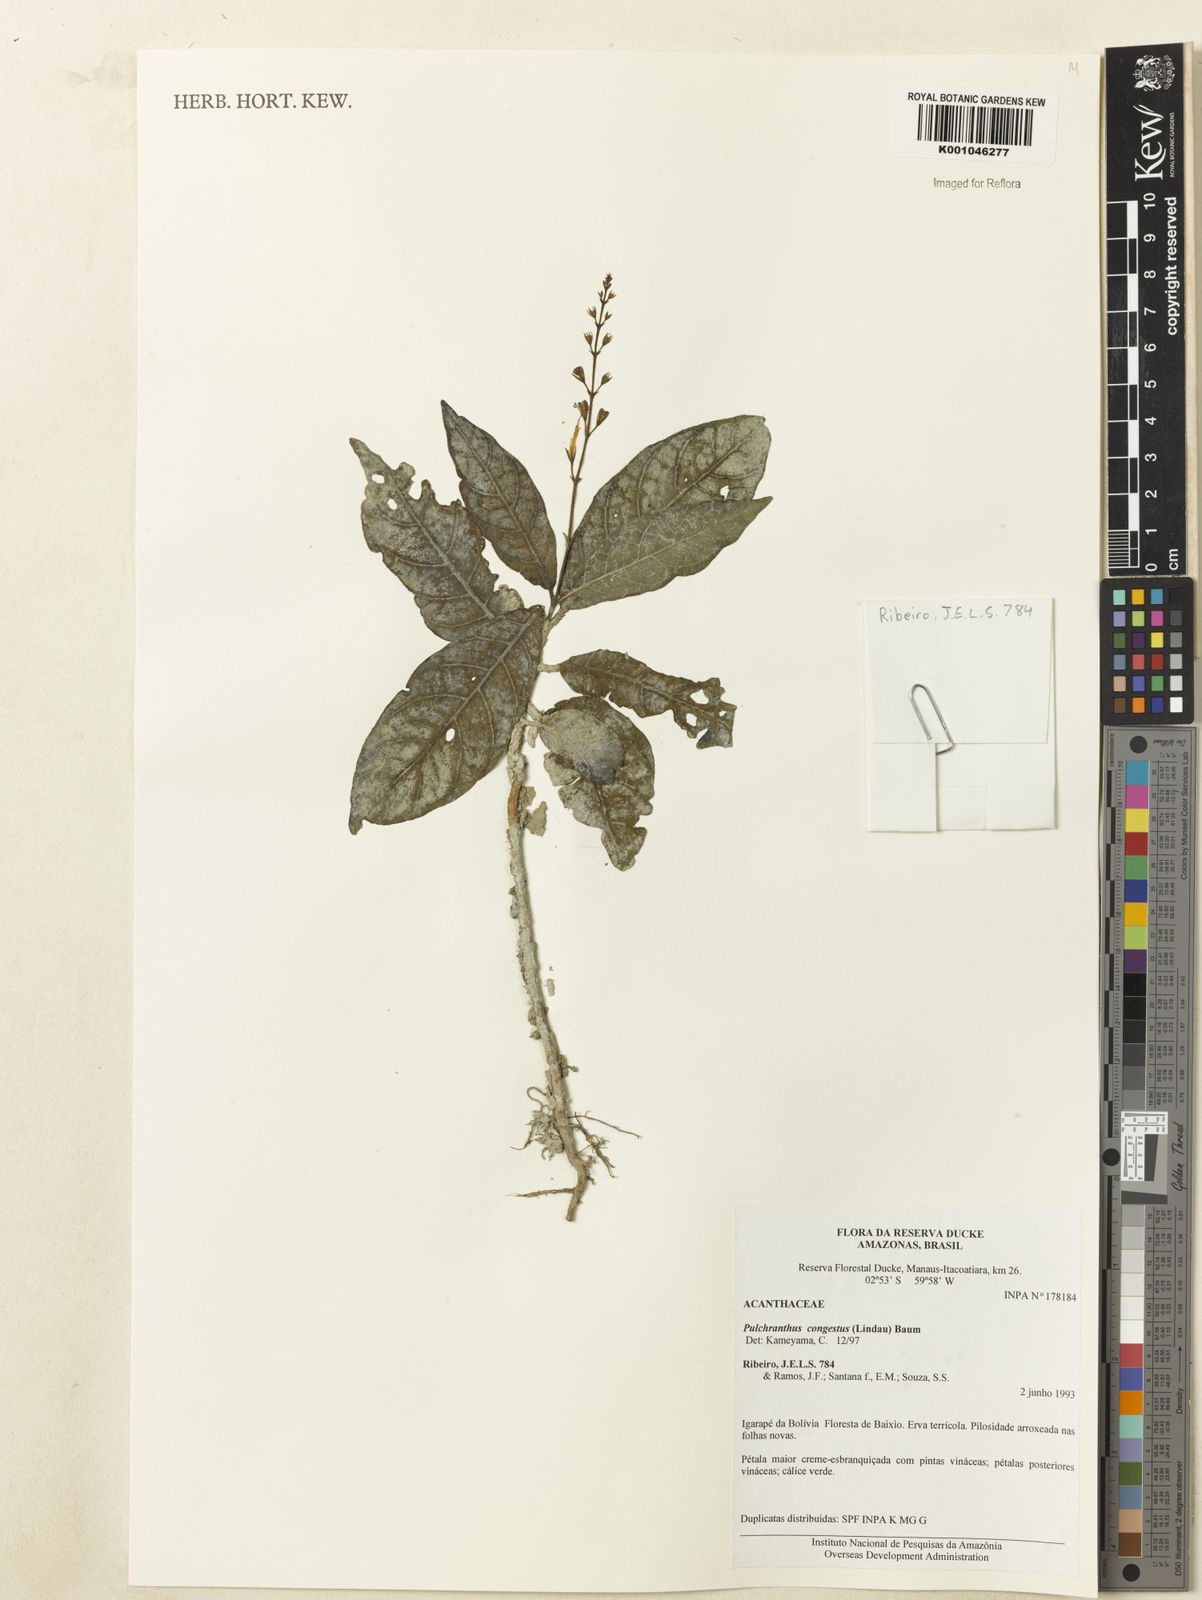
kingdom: Plantae
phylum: Tracheophyta
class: Magnoliopsida
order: Lamiales
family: Acanthaceae
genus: Pulchranthus
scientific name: Pulchranthus
